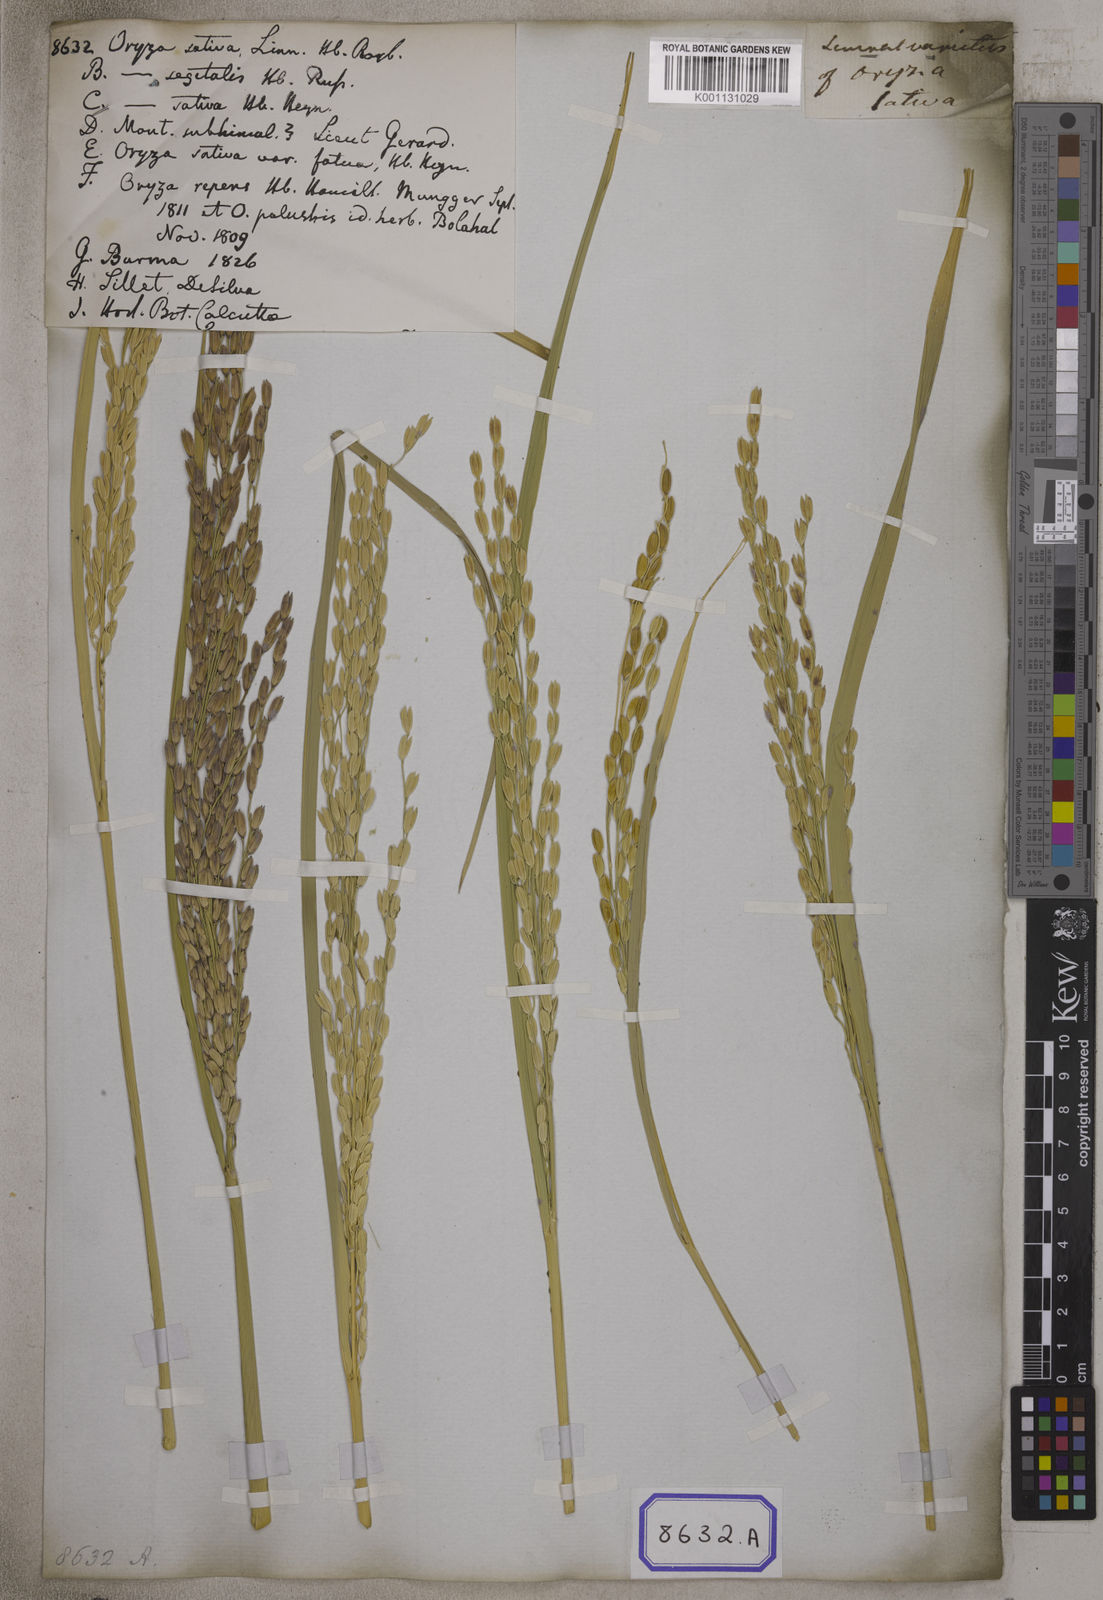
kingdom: Plantae
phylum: Tracheophyta
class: Liliopsida
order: Poales
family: Poaceae
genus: Oryza
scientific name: Oryza sativa
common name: Rice
